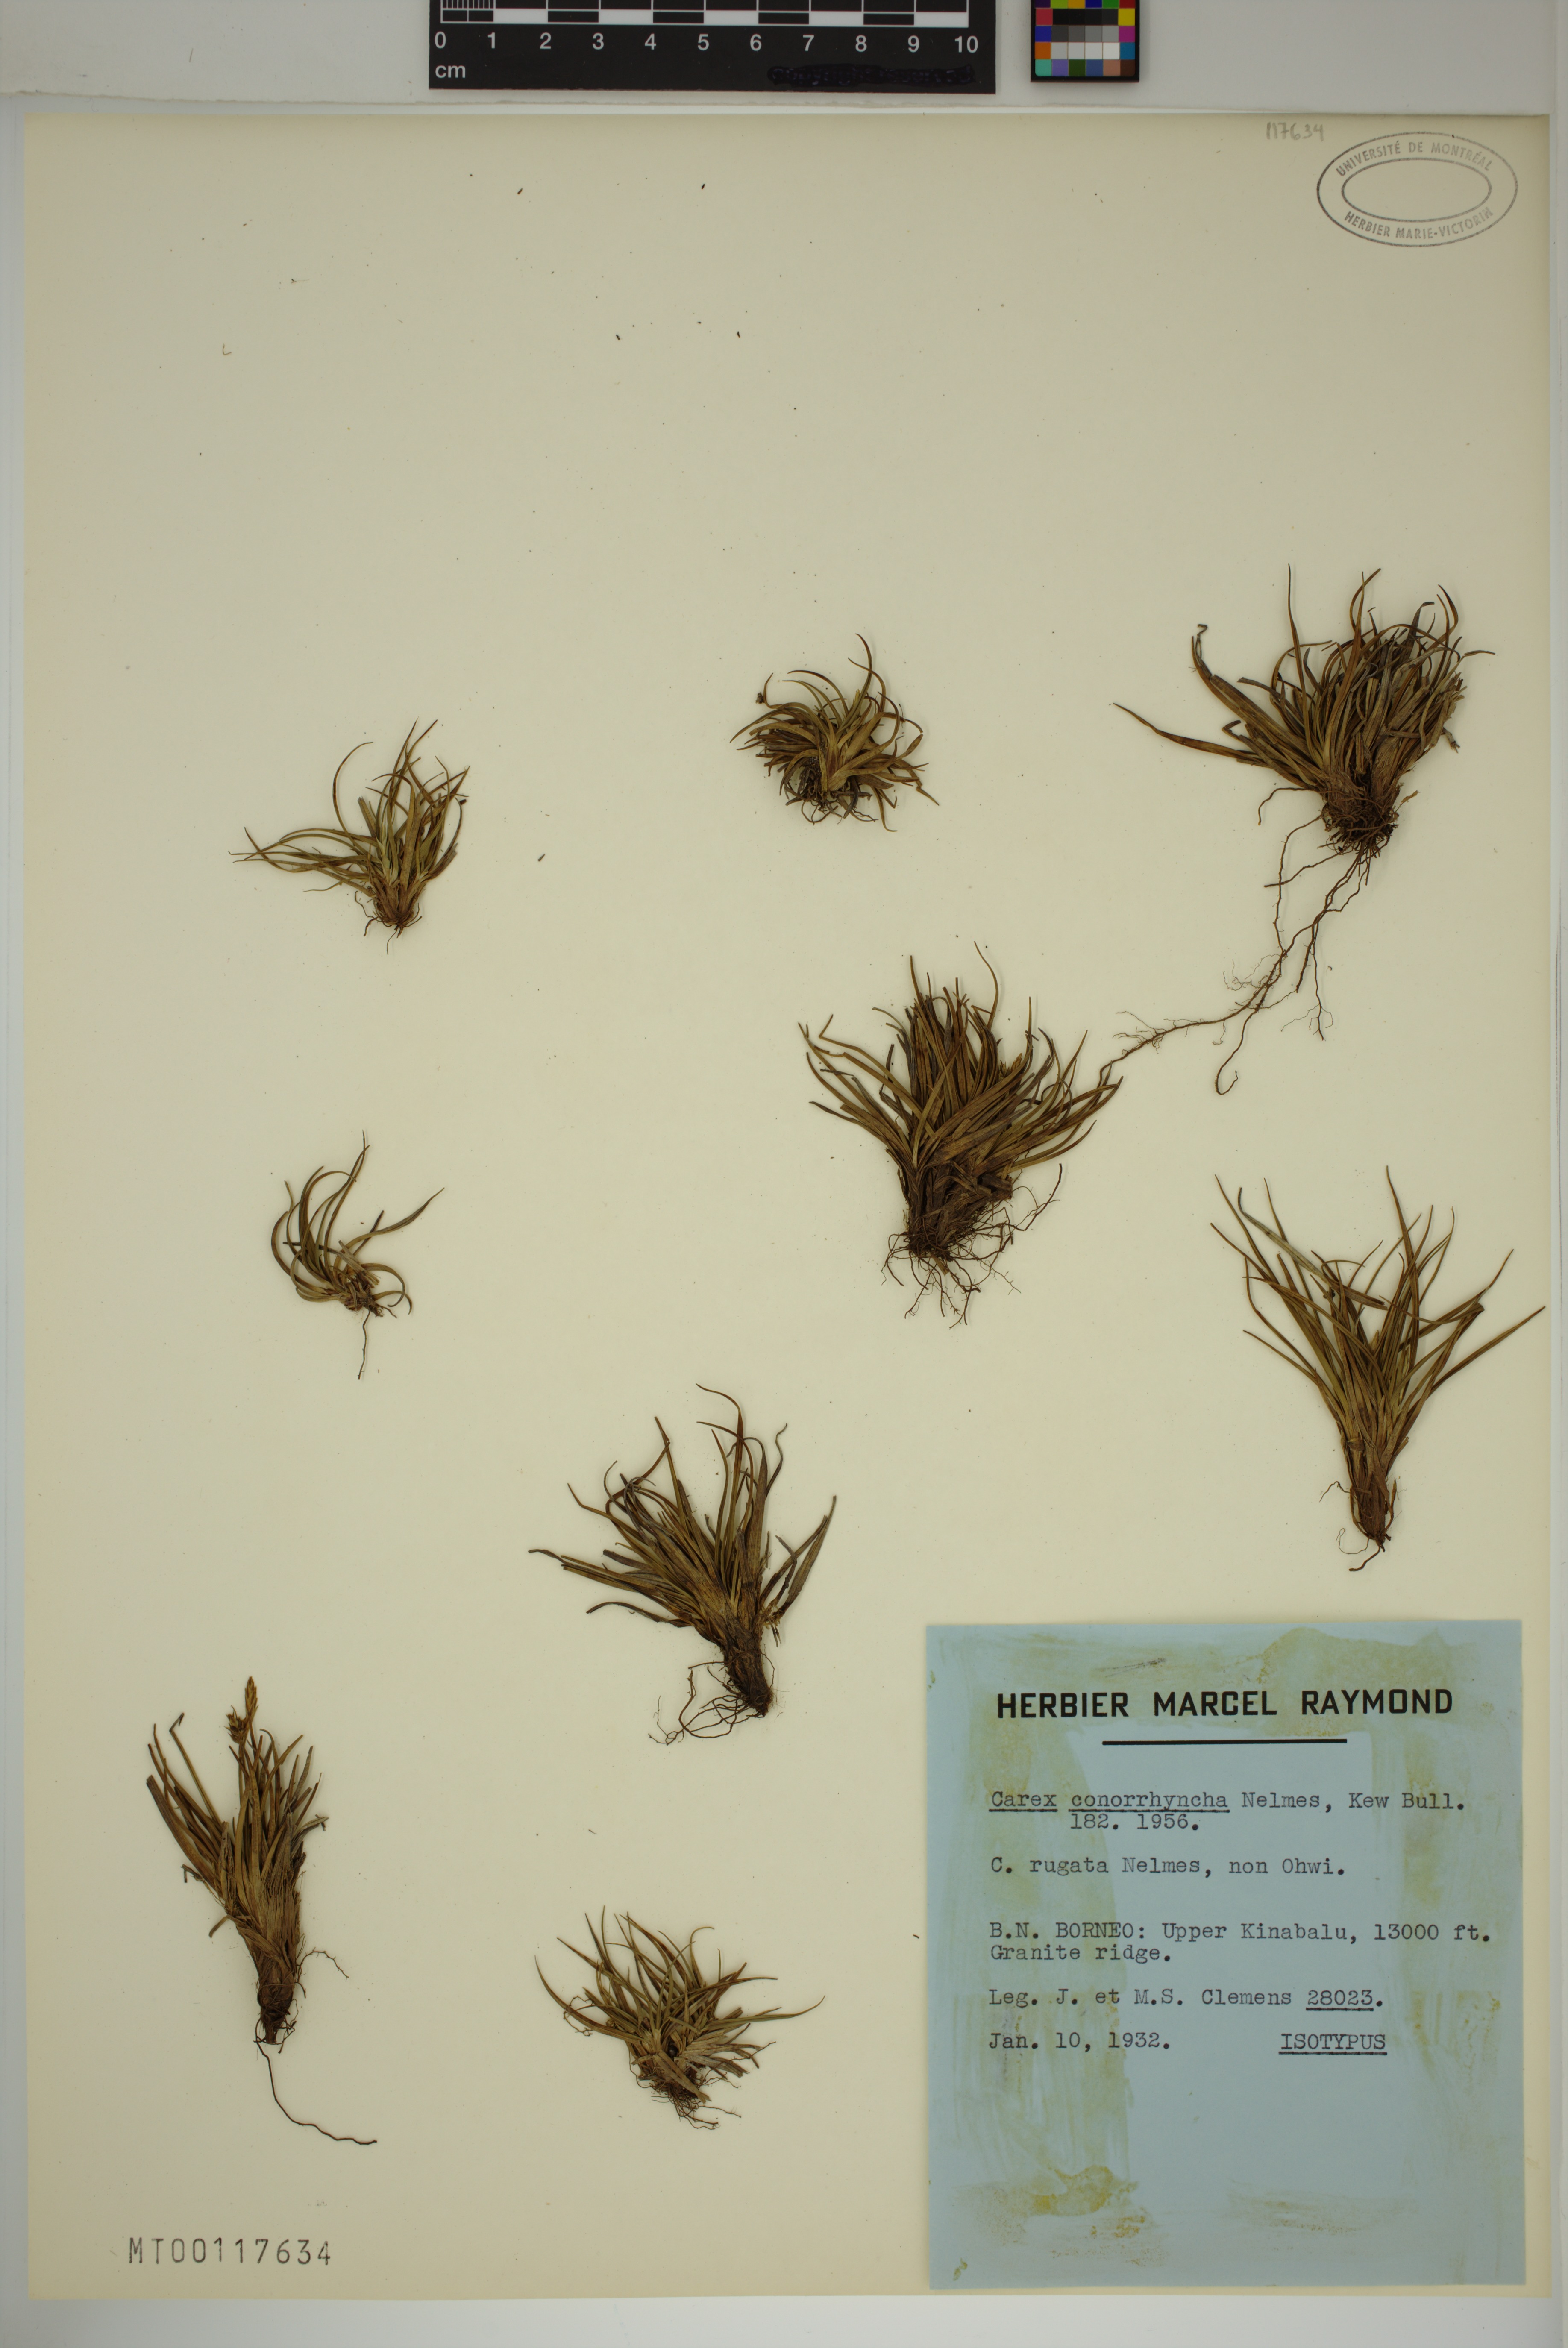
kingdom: Plantae
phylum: Tracheophyta
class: Liliopsida
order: Poales
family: Cyperaceae
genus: Carex
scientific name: Carex breviculmis
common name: Asian shortstem sedge
